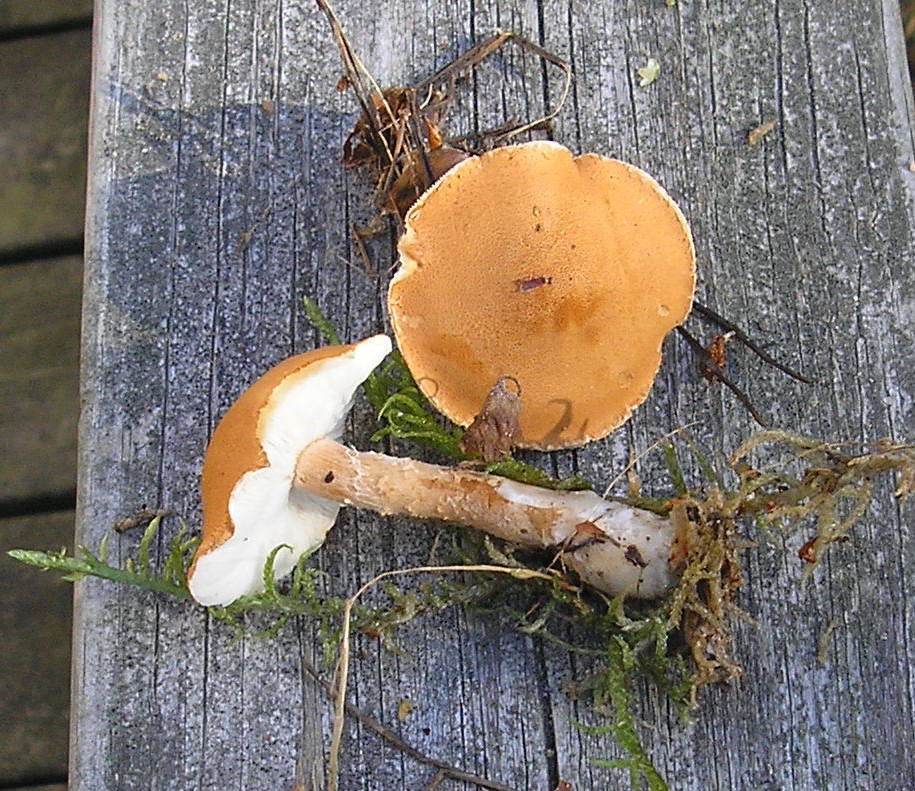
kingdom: Fungi
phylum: Basidiomycota
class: Agaricomycetes
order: Agaricales
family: Tricholomataceae
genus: Cystoderma
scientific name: Cystoderma amianthinum
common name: okkergul grynhat
